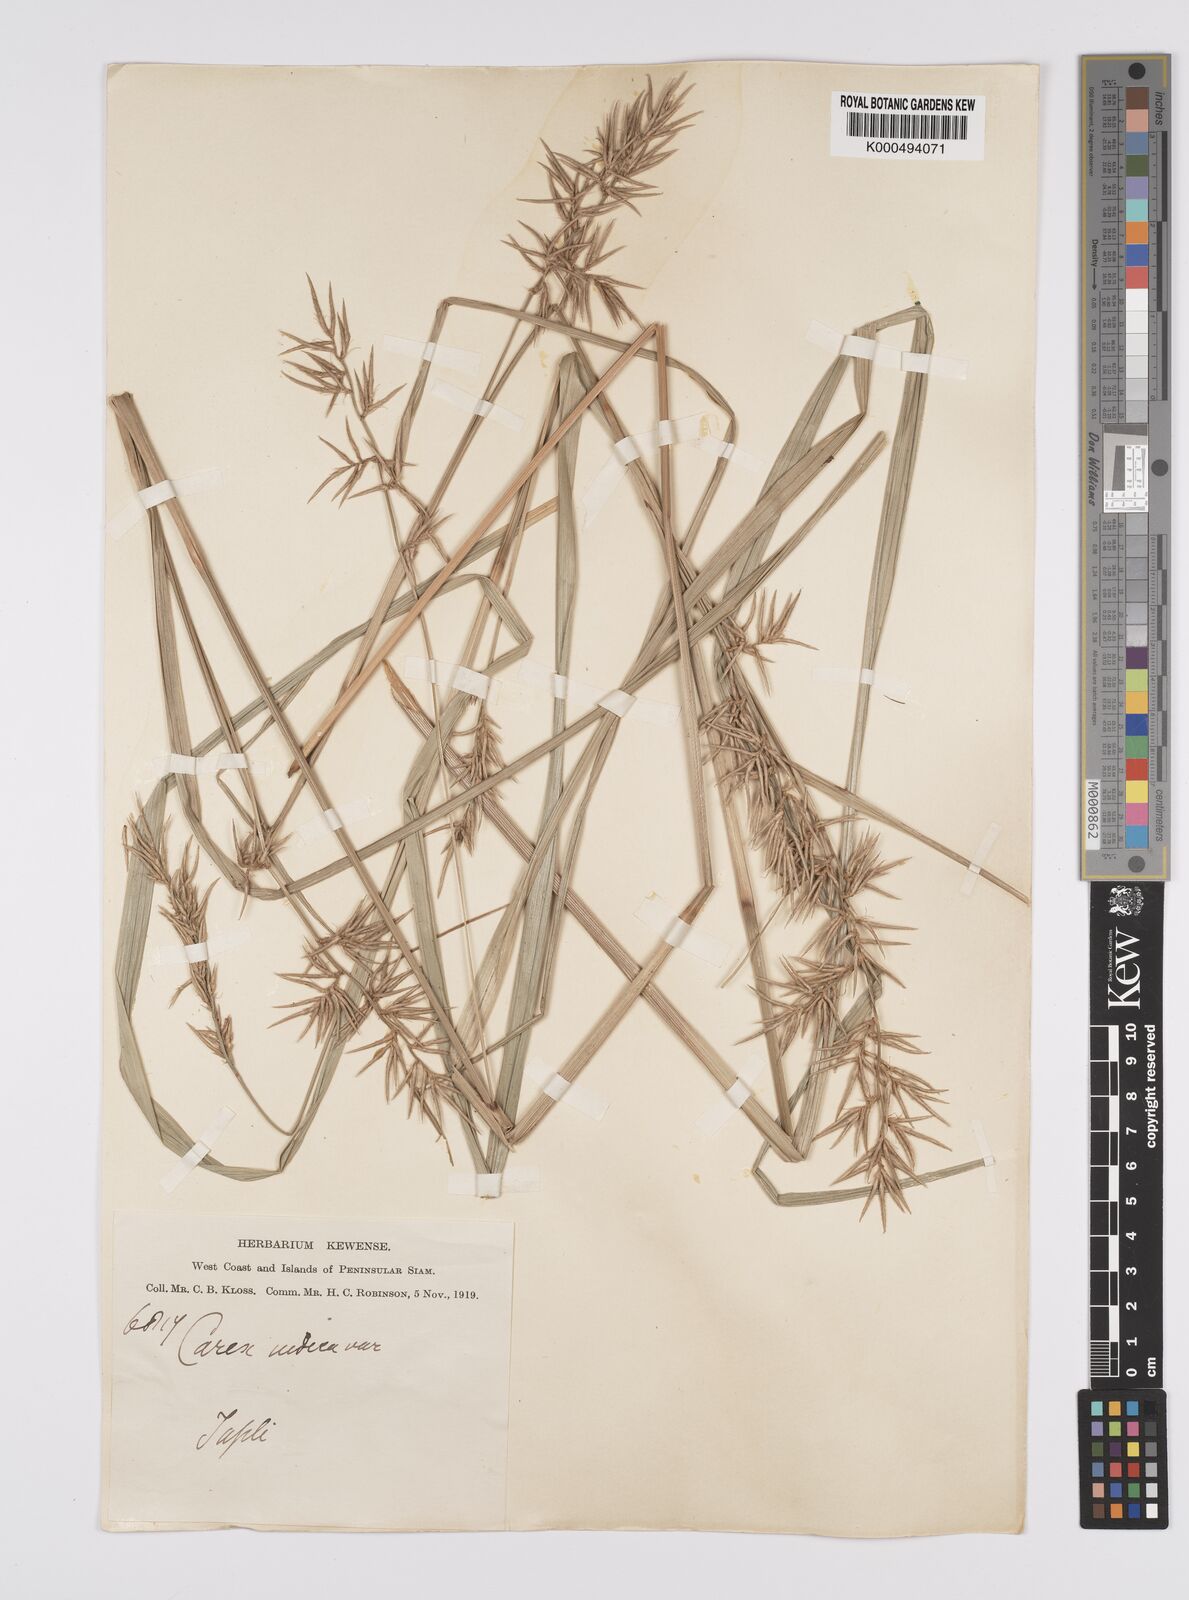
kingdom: Plantae
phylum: Tracheophyta
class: Liliopsida
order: Poales
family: Cyperaceae
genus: Carex
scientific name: Carex indica
